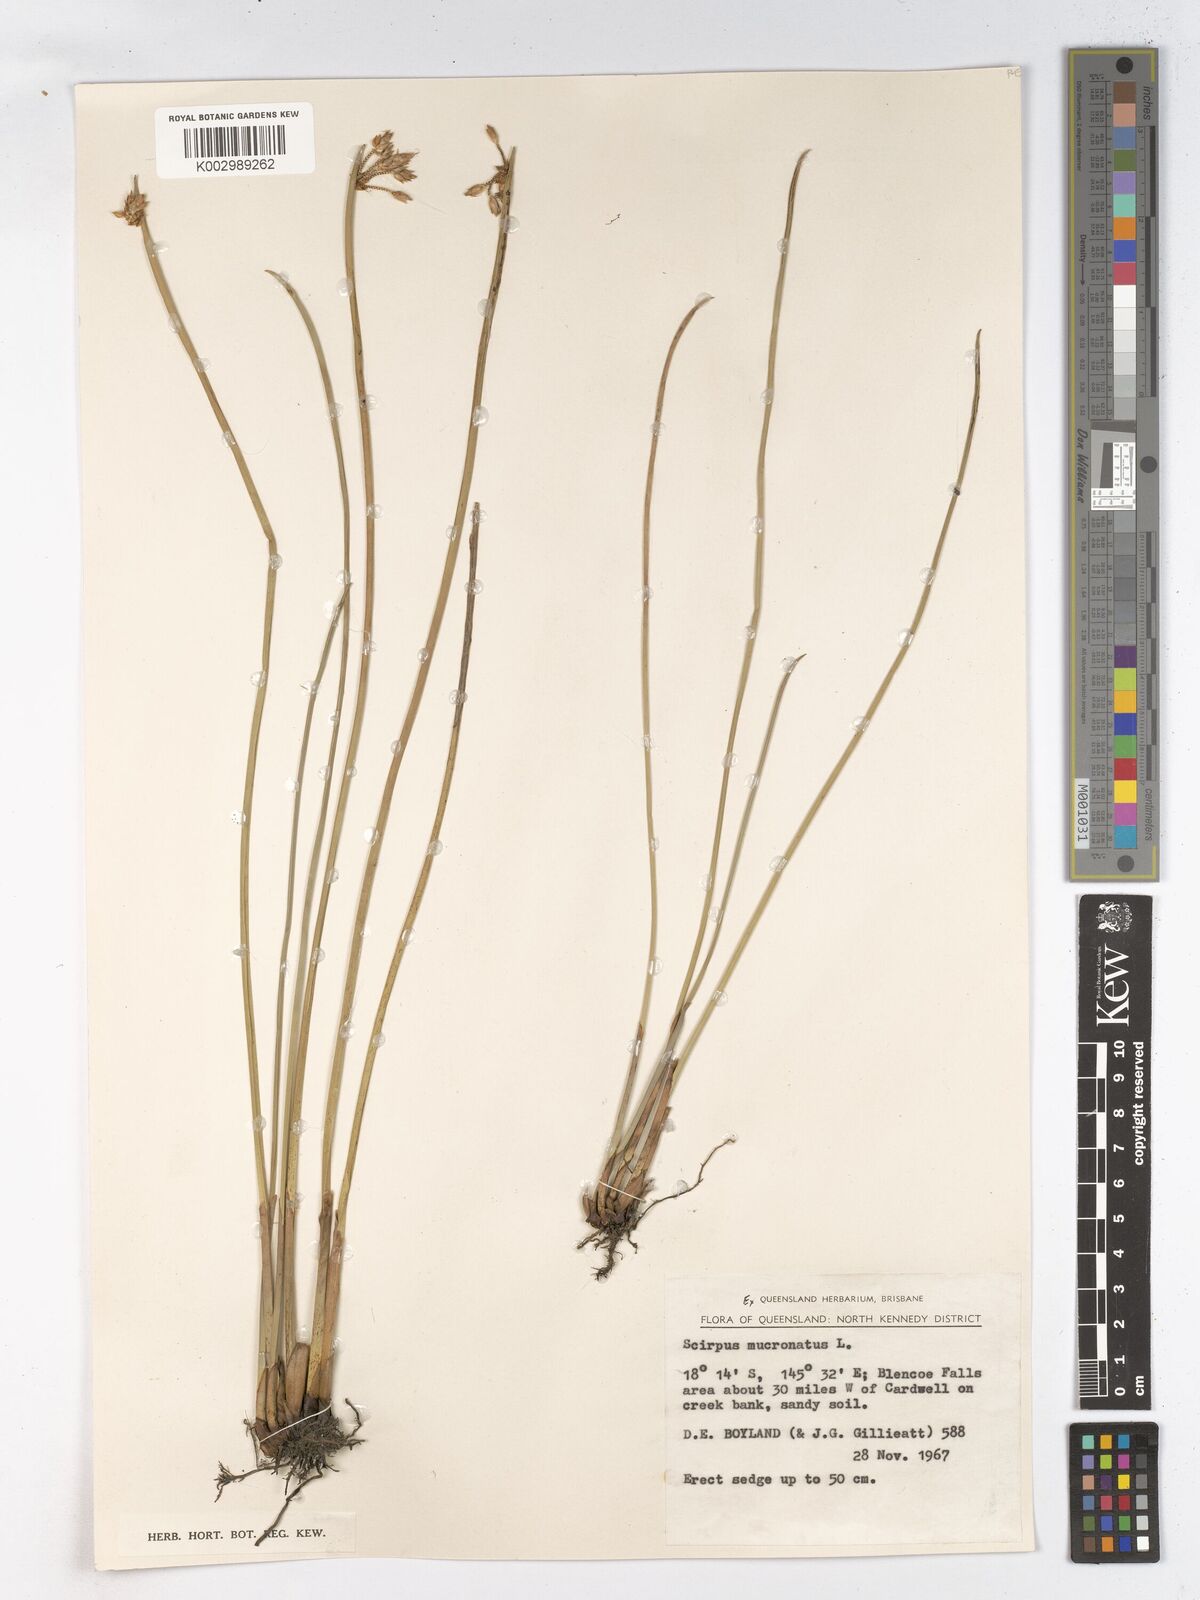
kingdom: Plantae
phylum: Tracheophyta
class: Liliopsida
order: Poales
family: Cyperaceae
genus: Schoenoplectiella
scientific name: Schoenoplectiella mucronata
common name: Bog bulrush
